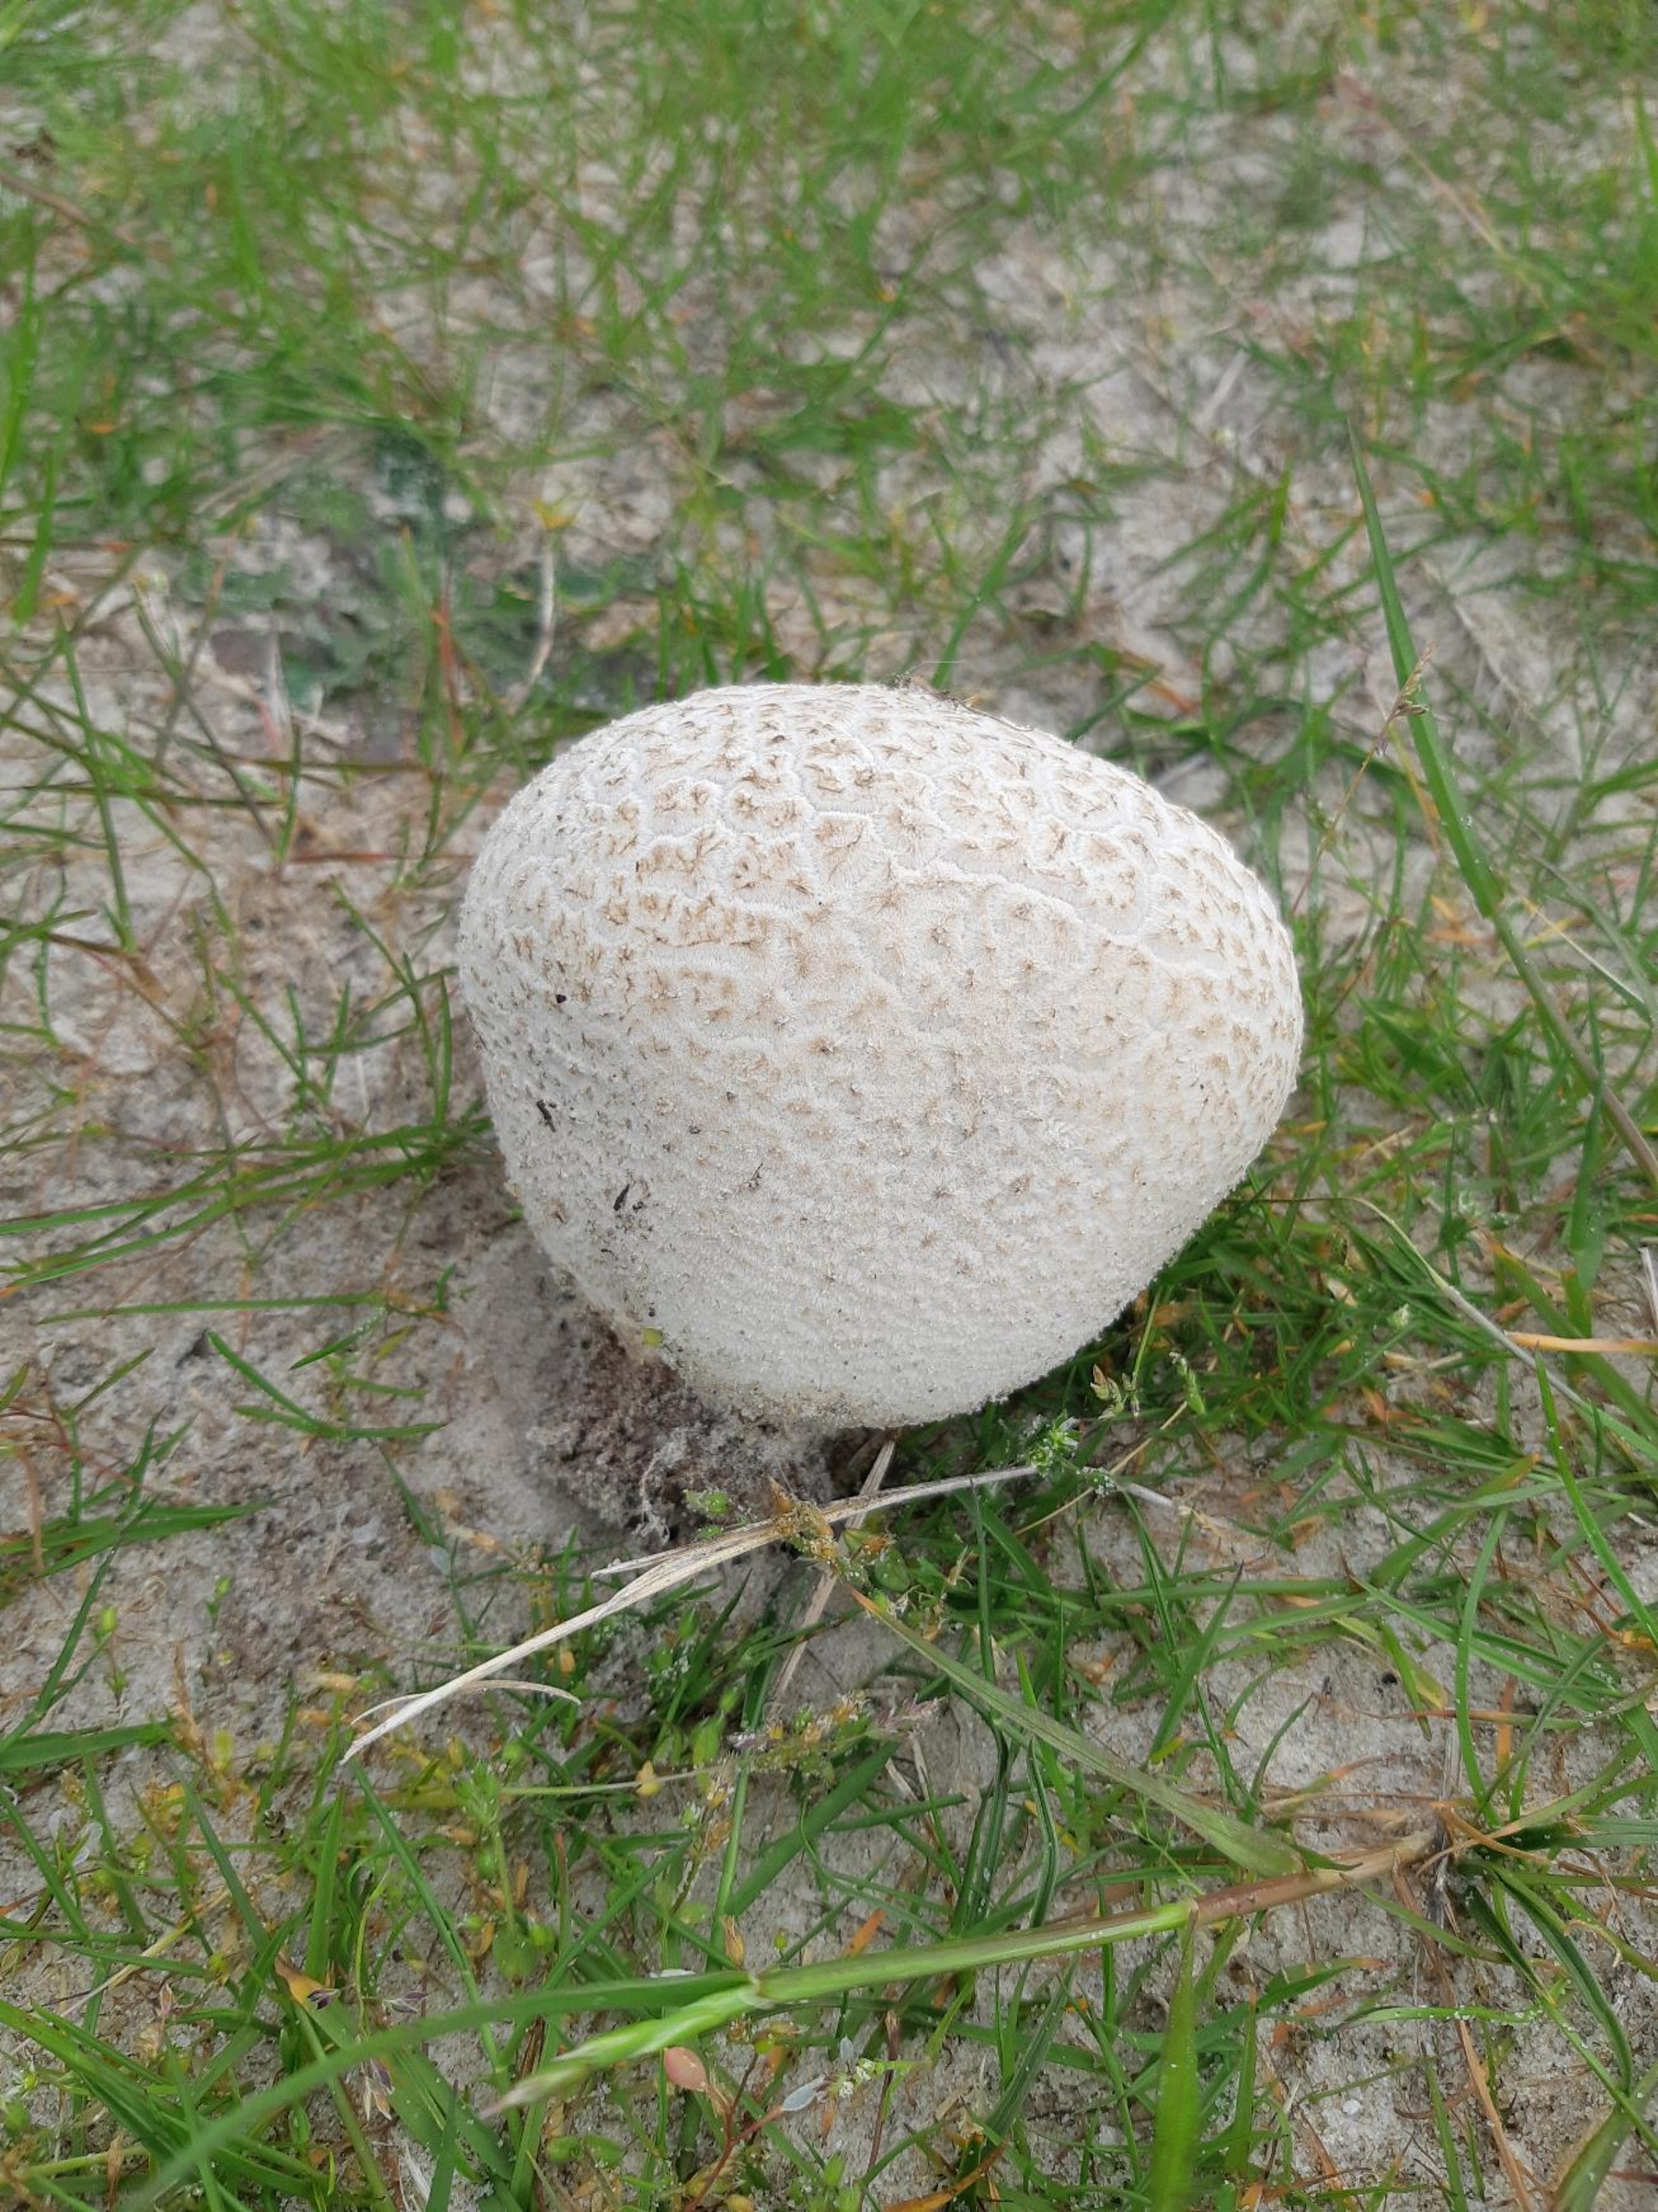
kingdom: Fungi
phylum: Basidiomycota
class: Agaricomycetes
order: Agaricales
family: Lycoperdaceae
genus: Bovistella
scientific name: Bovistella utriformis
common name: Skællet støvbold
